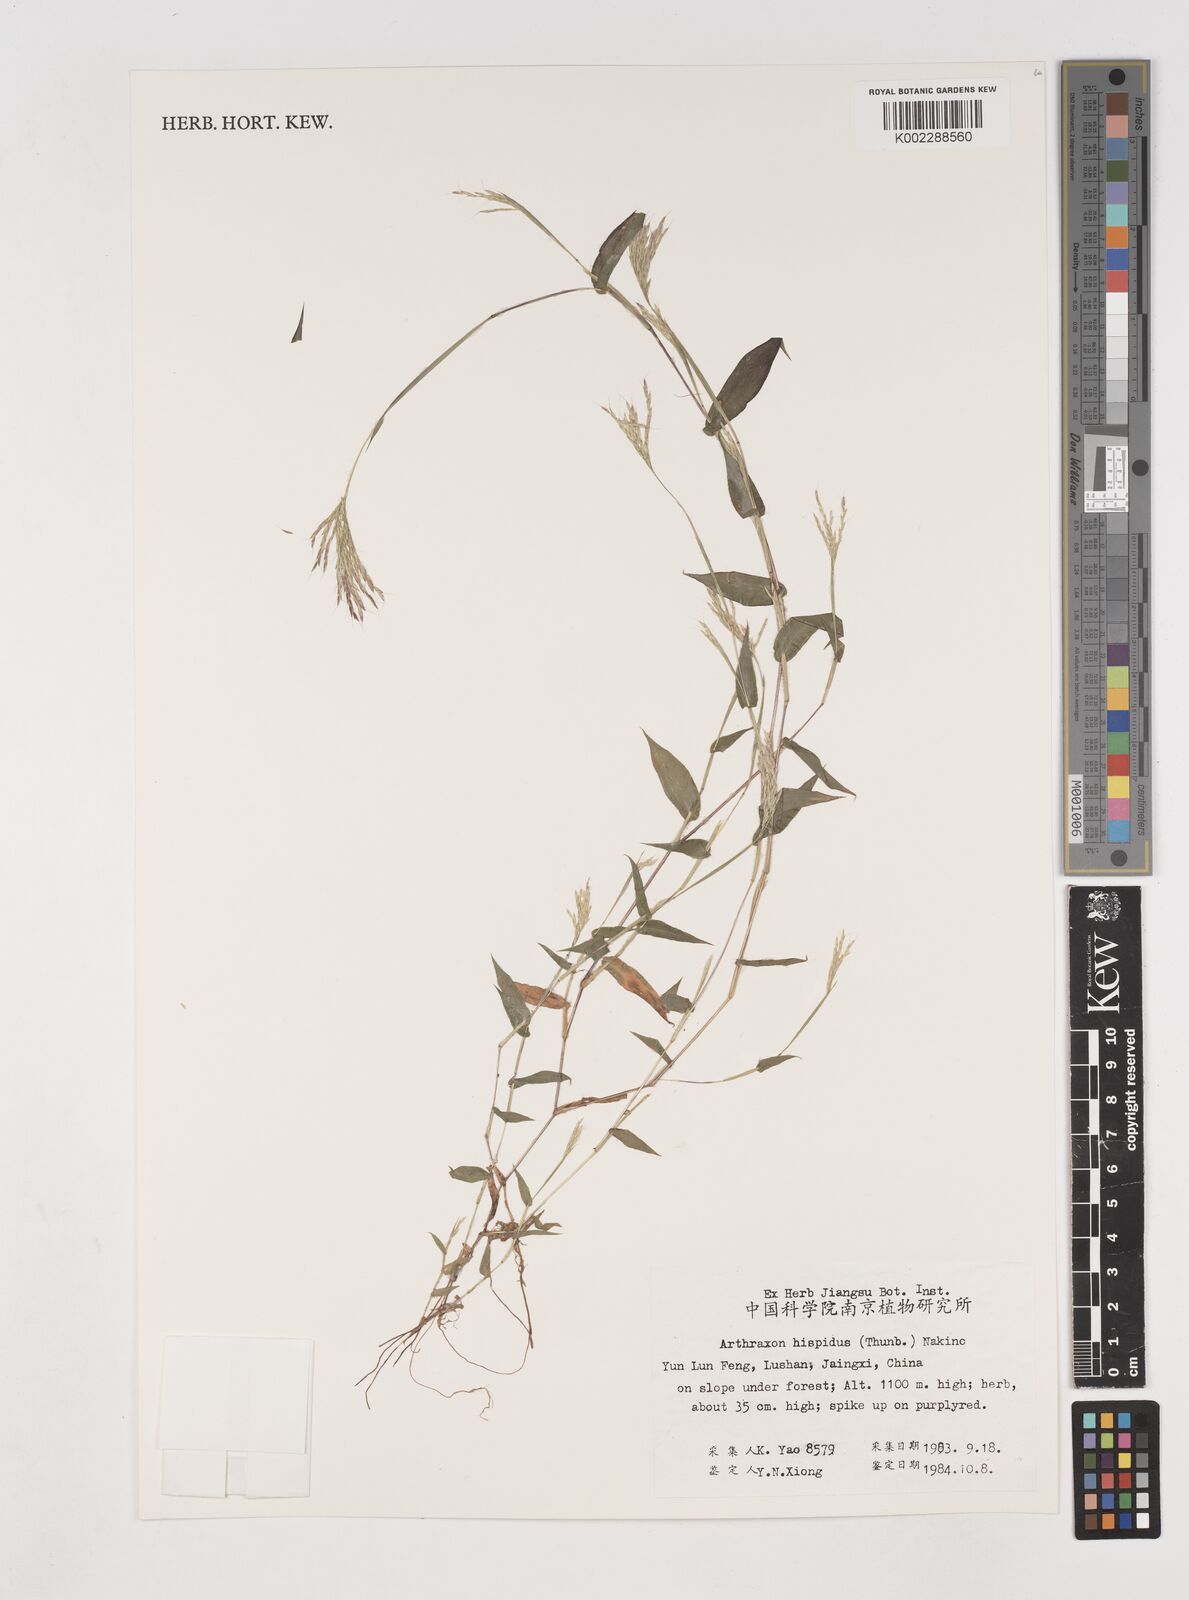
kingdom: Plantae
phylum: Tracheophyta
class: Liliopsida
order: Poales
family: Poaceae
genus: Arthraxon
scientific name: Arthraxon hispidus
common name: Small carpgrass
